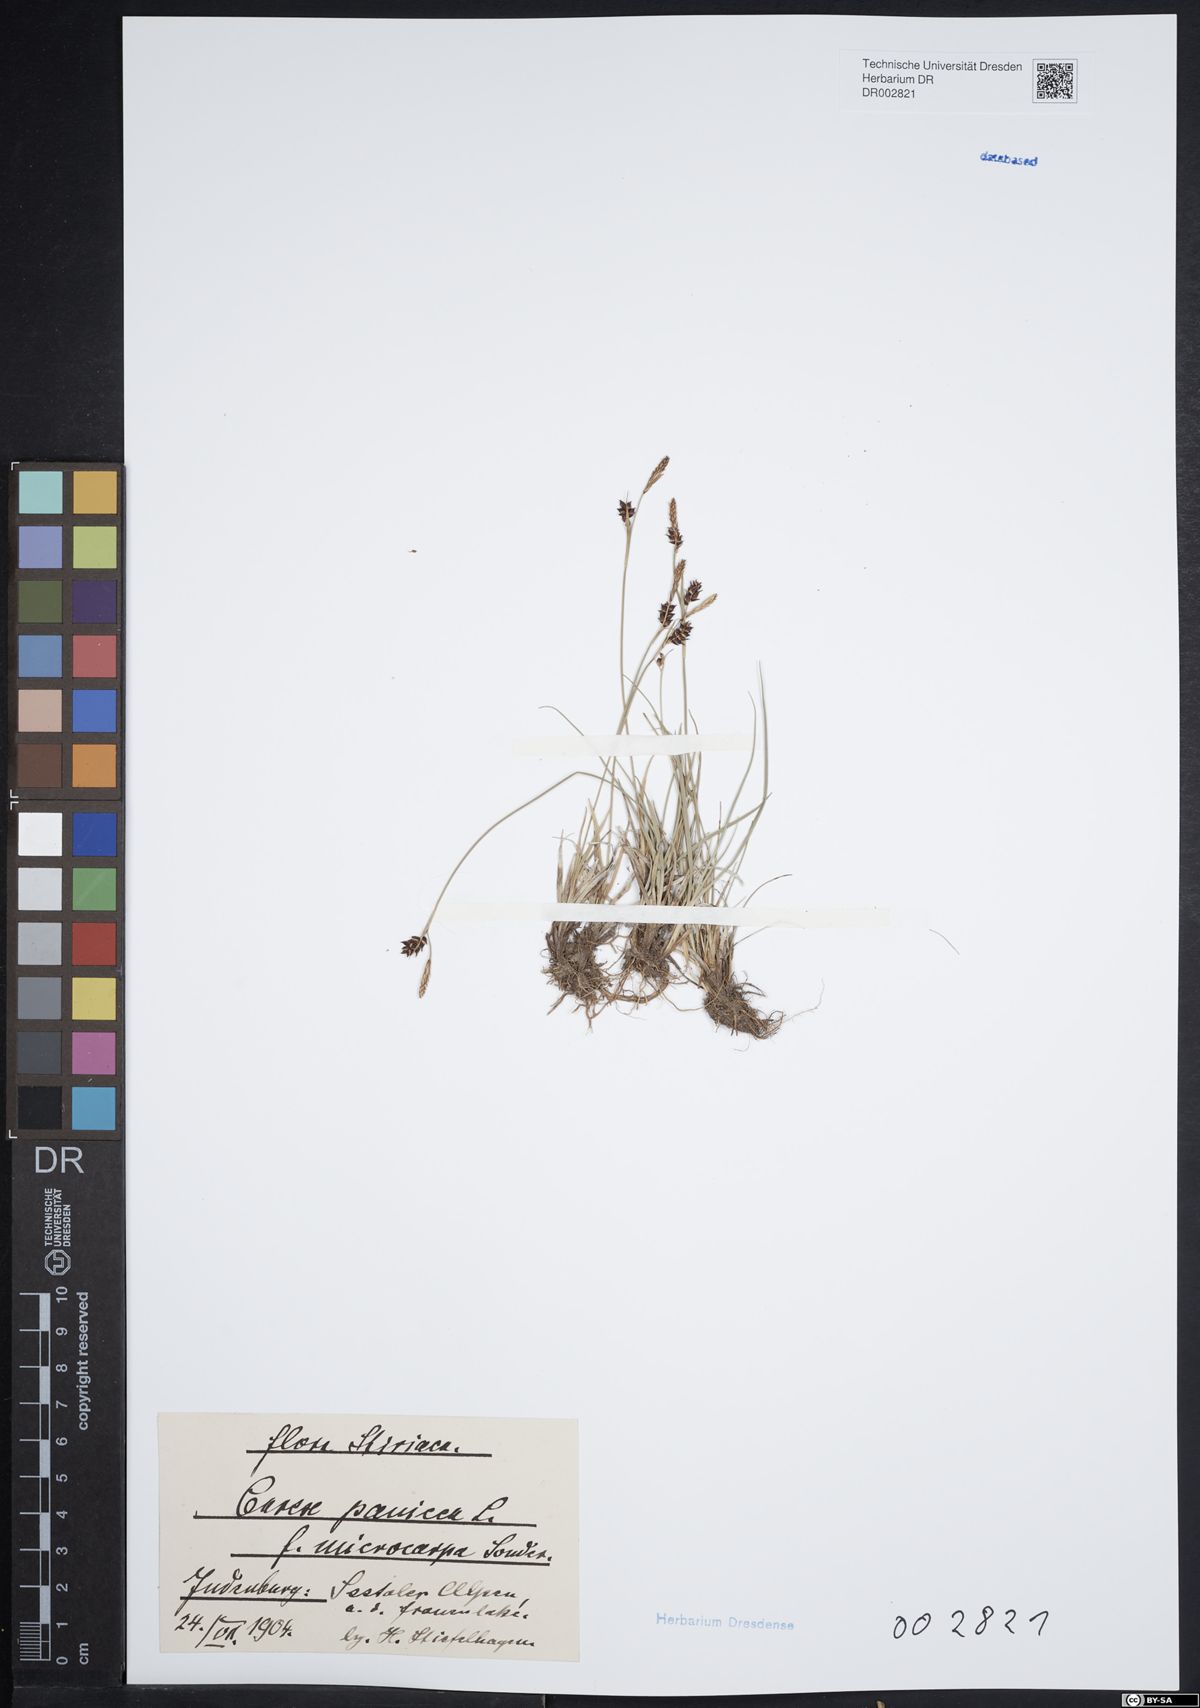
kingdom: Plantae
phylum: Tracheophyta
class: Liliopsida
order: Poales
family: Cyperaceae
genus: Carex
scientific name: Carex panicea
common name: Carnation sedge
